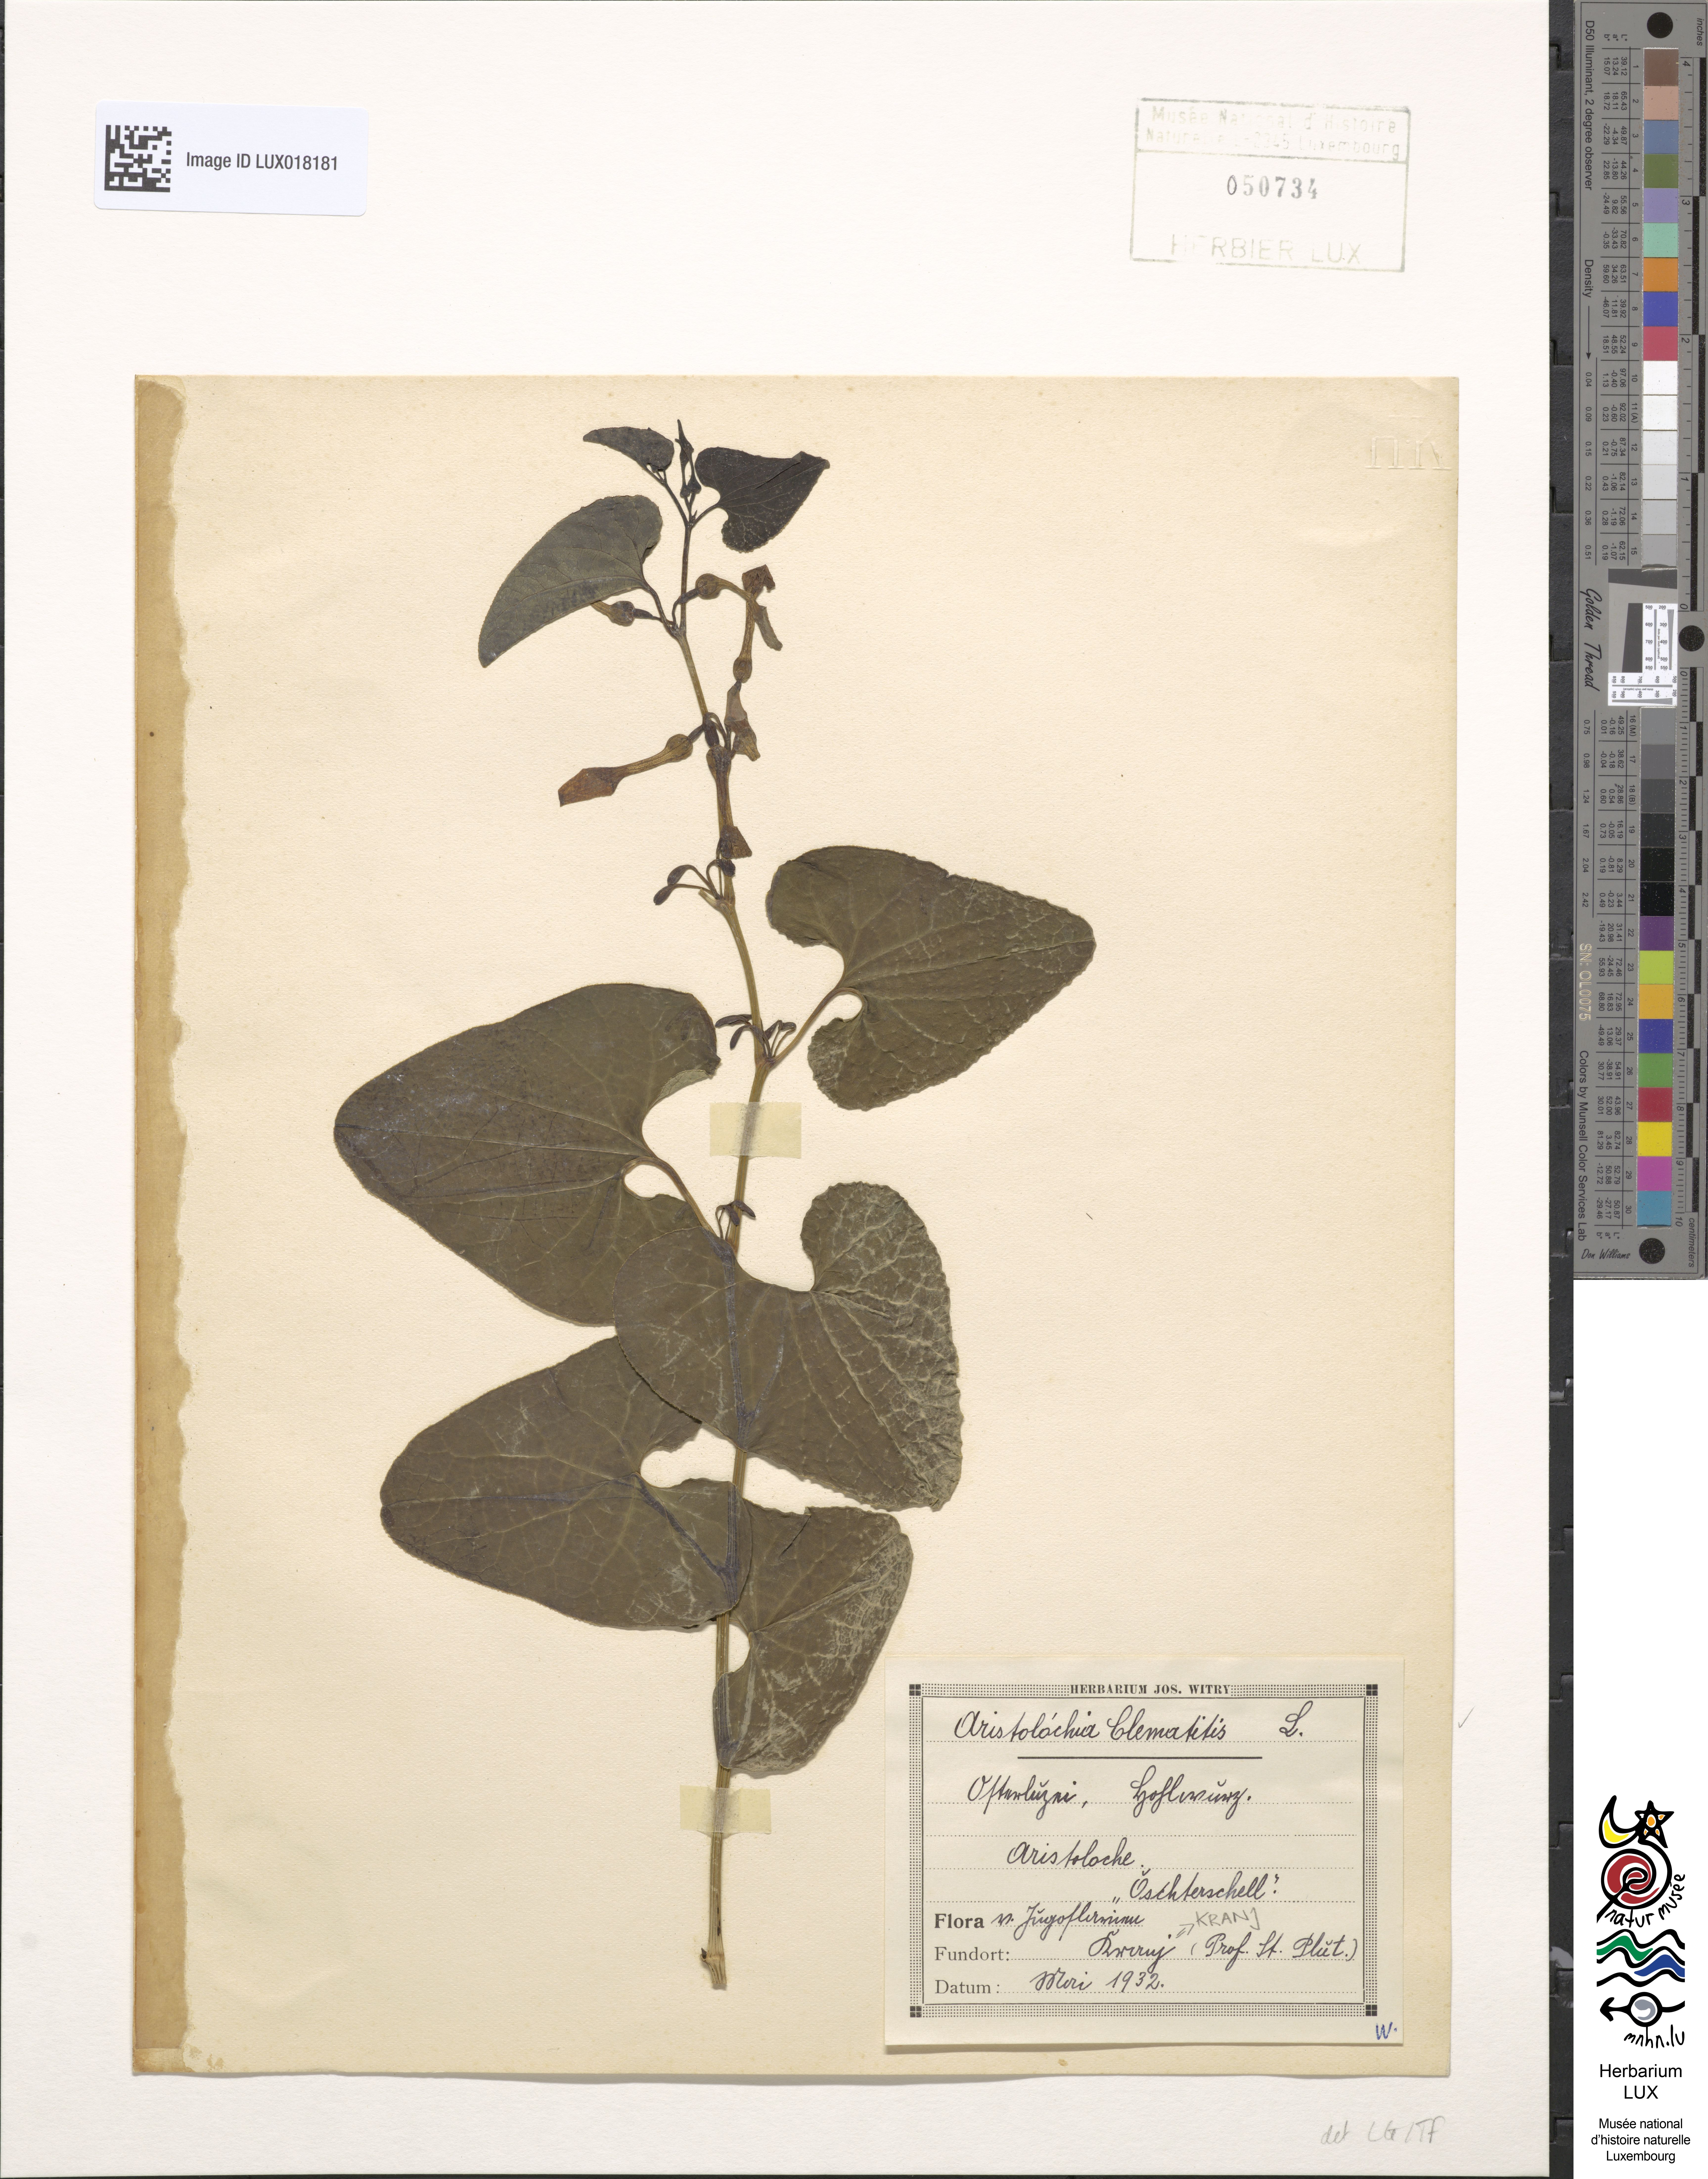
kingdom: Plantae
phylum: Tracheophyta
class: Magnoliopsida
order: Piperales
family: Aristolochiaceae
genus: Aristolochia
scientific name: Aristolochia clematitis
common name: Birthwort
